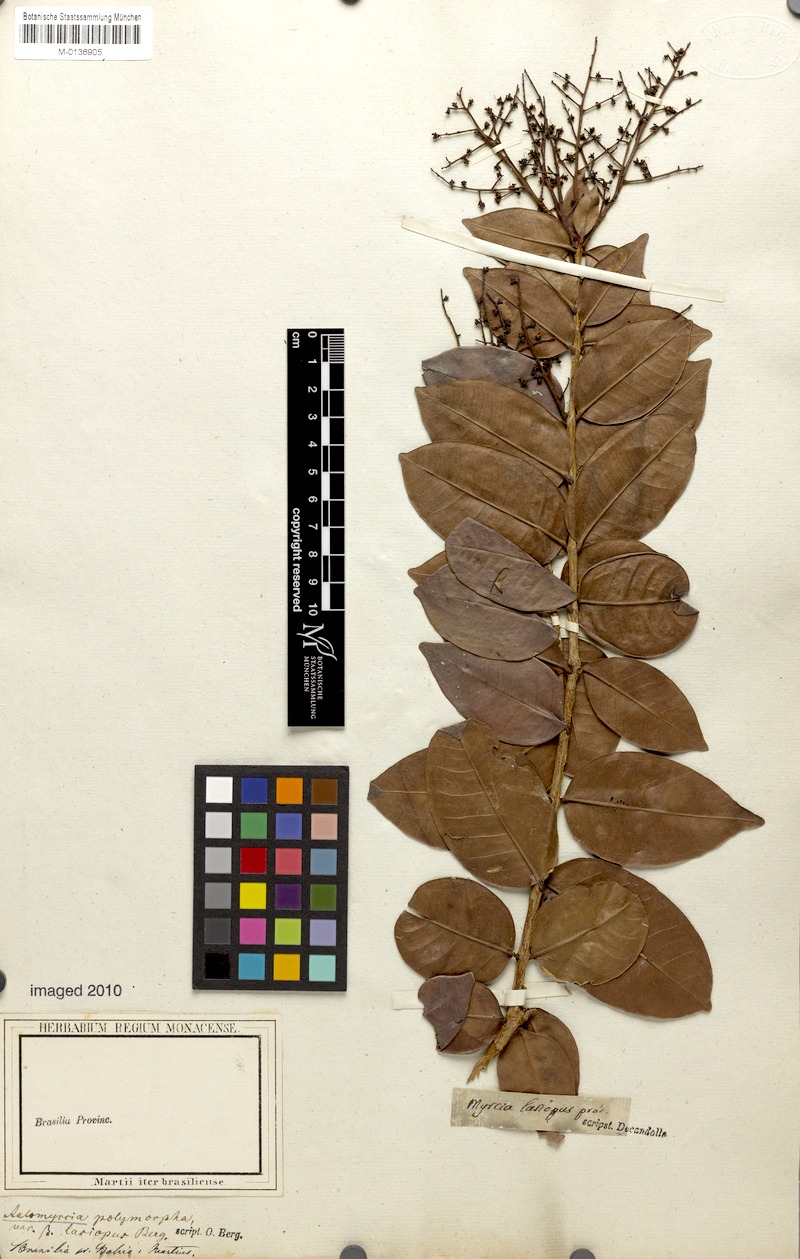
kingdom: Plantae
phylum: Tracheophyta
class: Magnoliopsida
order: Myrtales
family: Myrtaceae
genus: Myrcia
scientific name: Myrcia decorticans
